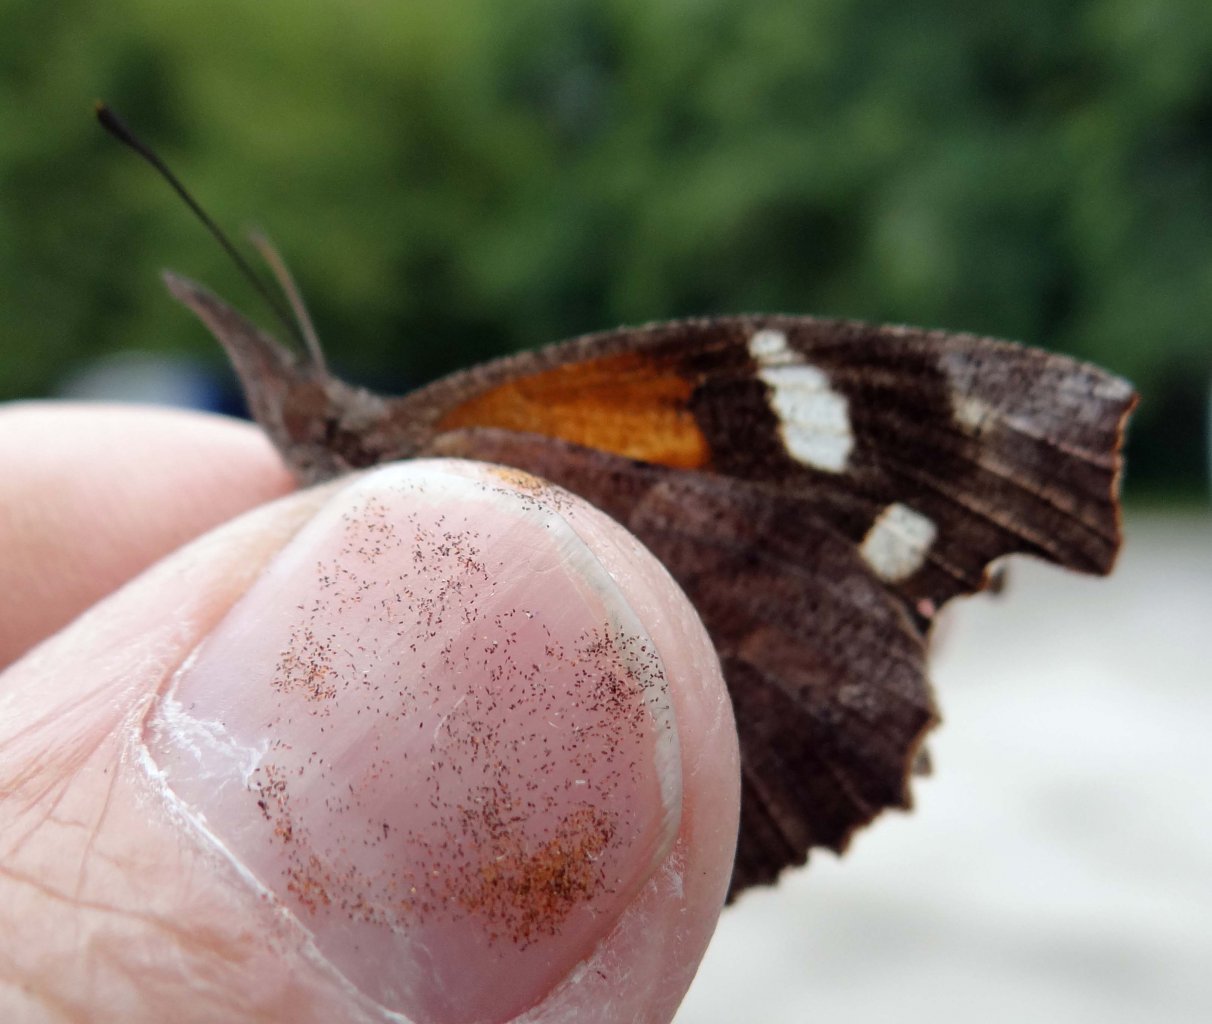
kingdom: Animalia
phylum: Arthropoda
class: Insecta
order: Lepidoptera
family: Nymphalidae
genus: Libytheana
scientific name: Libytheana carinenta
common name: American Snout
